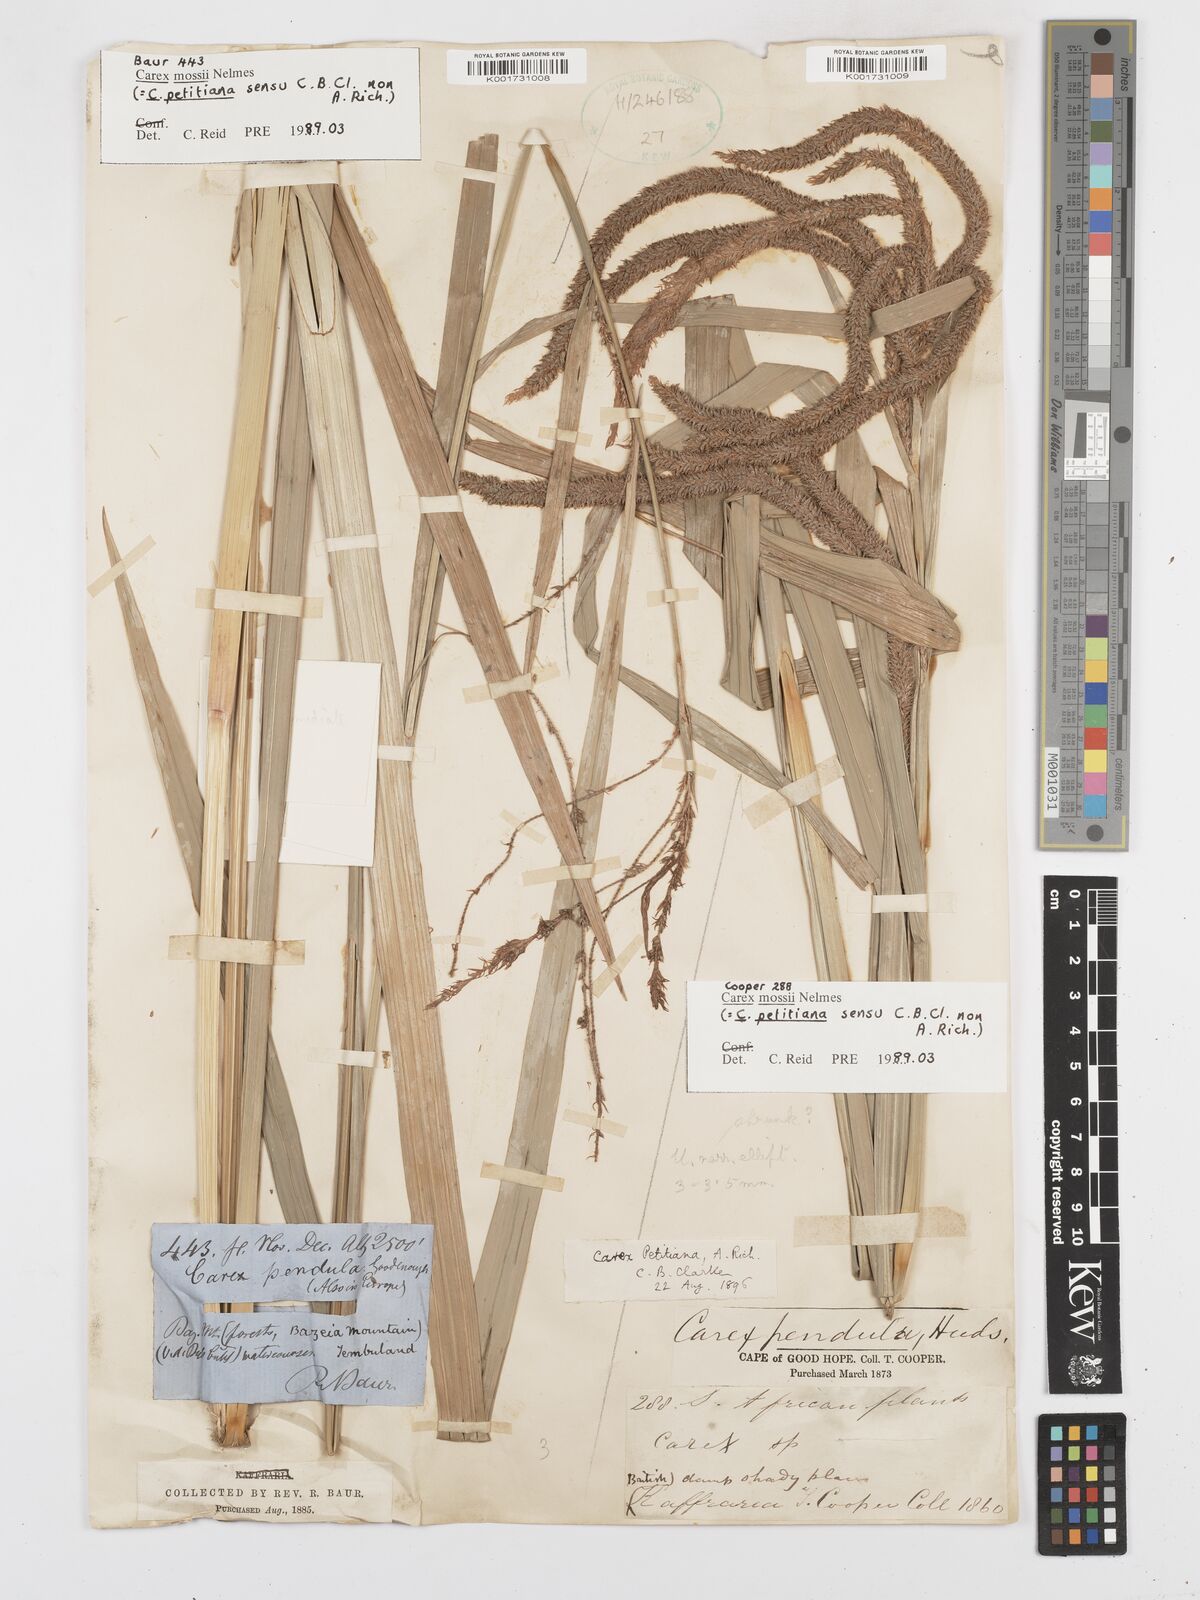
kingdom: Plantae
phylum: Tracheophyta
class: Liliopsida
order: Poales
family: Cyperaceae
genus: Carex
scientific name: Carex petitiana
